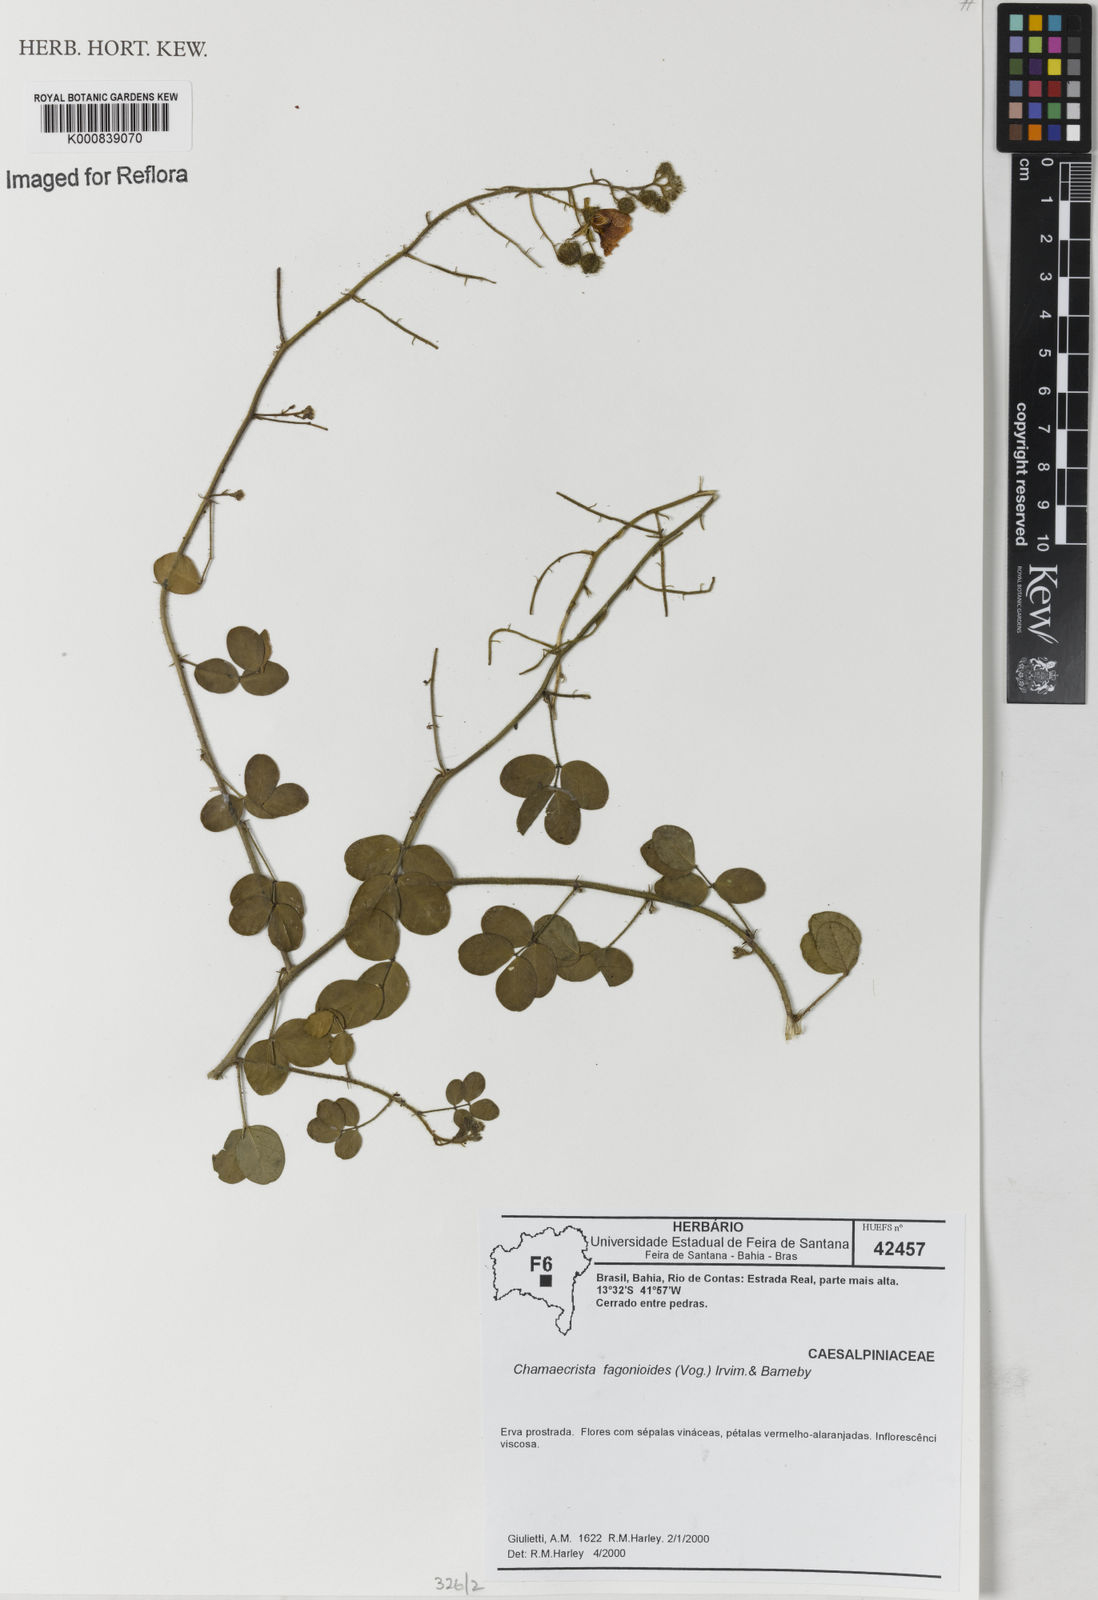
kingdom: Plantae
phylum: Tracheophyta
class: Magnoliopsida
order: Fabales
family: Fabaceae
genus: Chamaecrista
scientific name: Chamaecrista fagonioides
